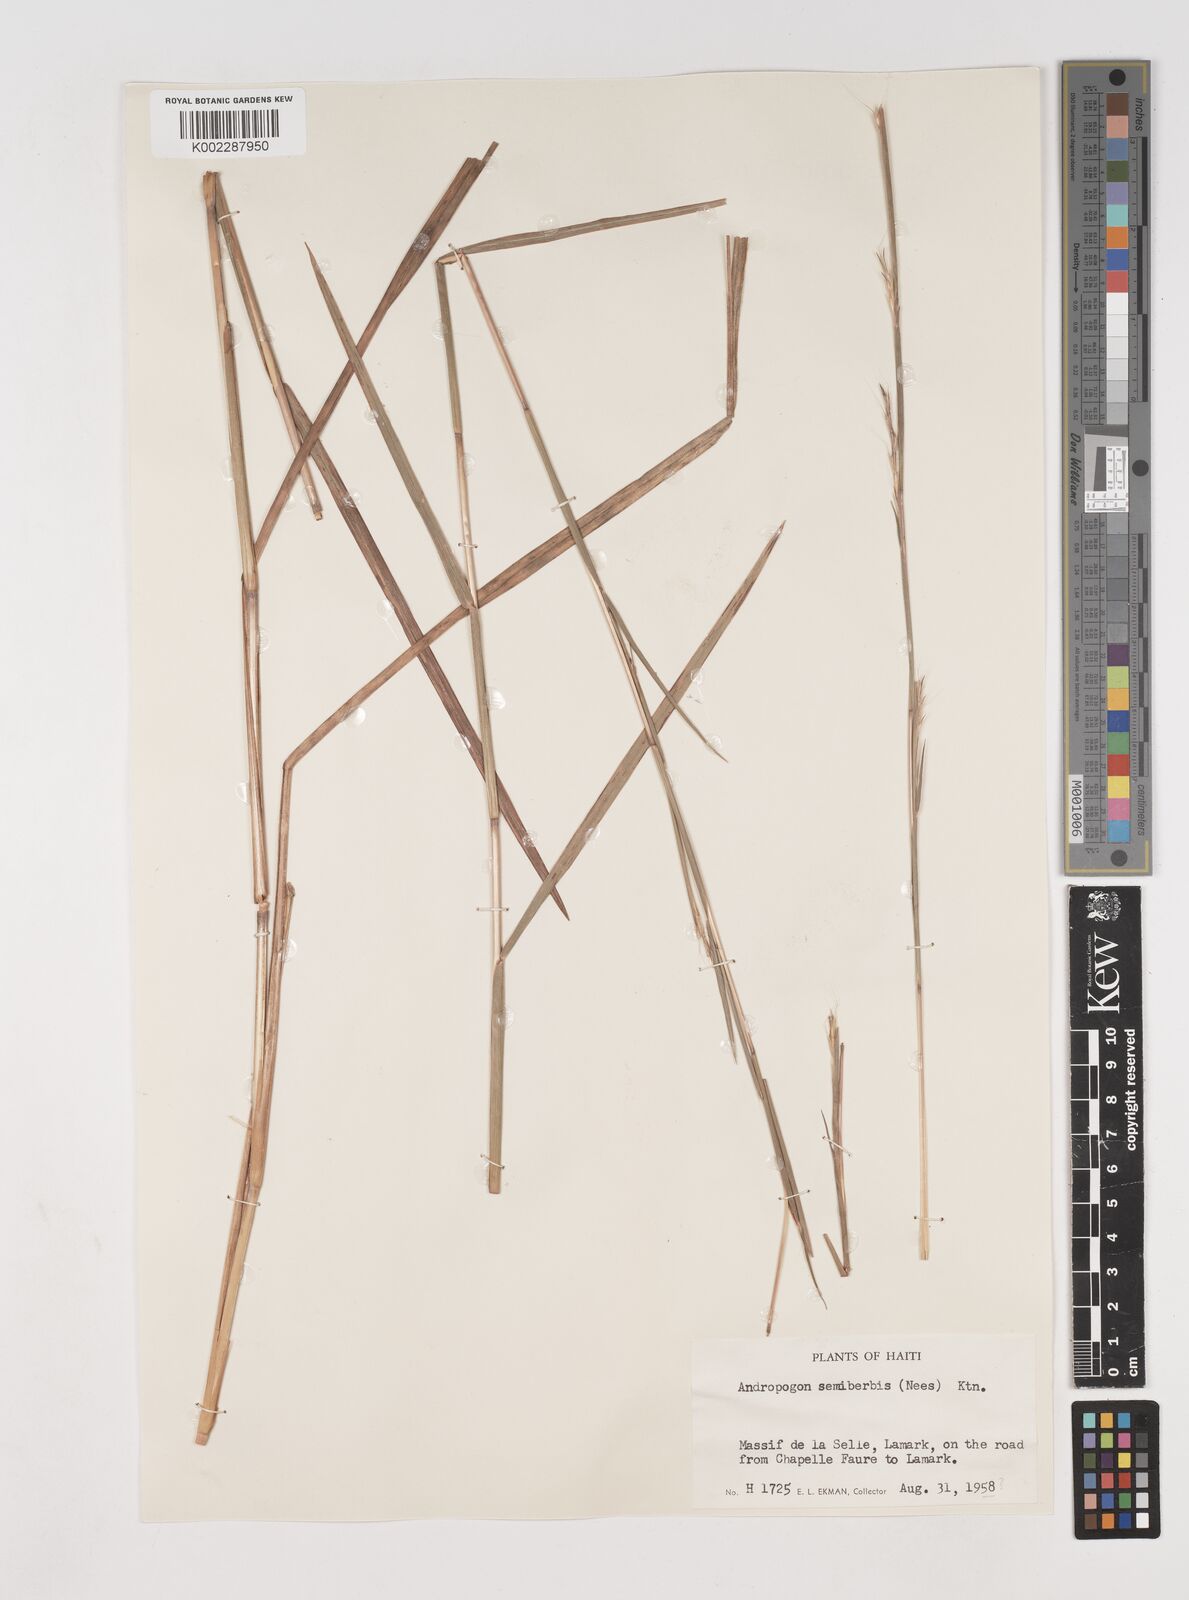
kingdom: Plantae
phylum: Tracheophyta
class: Liliopsida
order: Poales
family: Poaceae
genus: Schizachyrium
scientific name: Schizachyrium sanguineum
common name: Crimson bluestem
